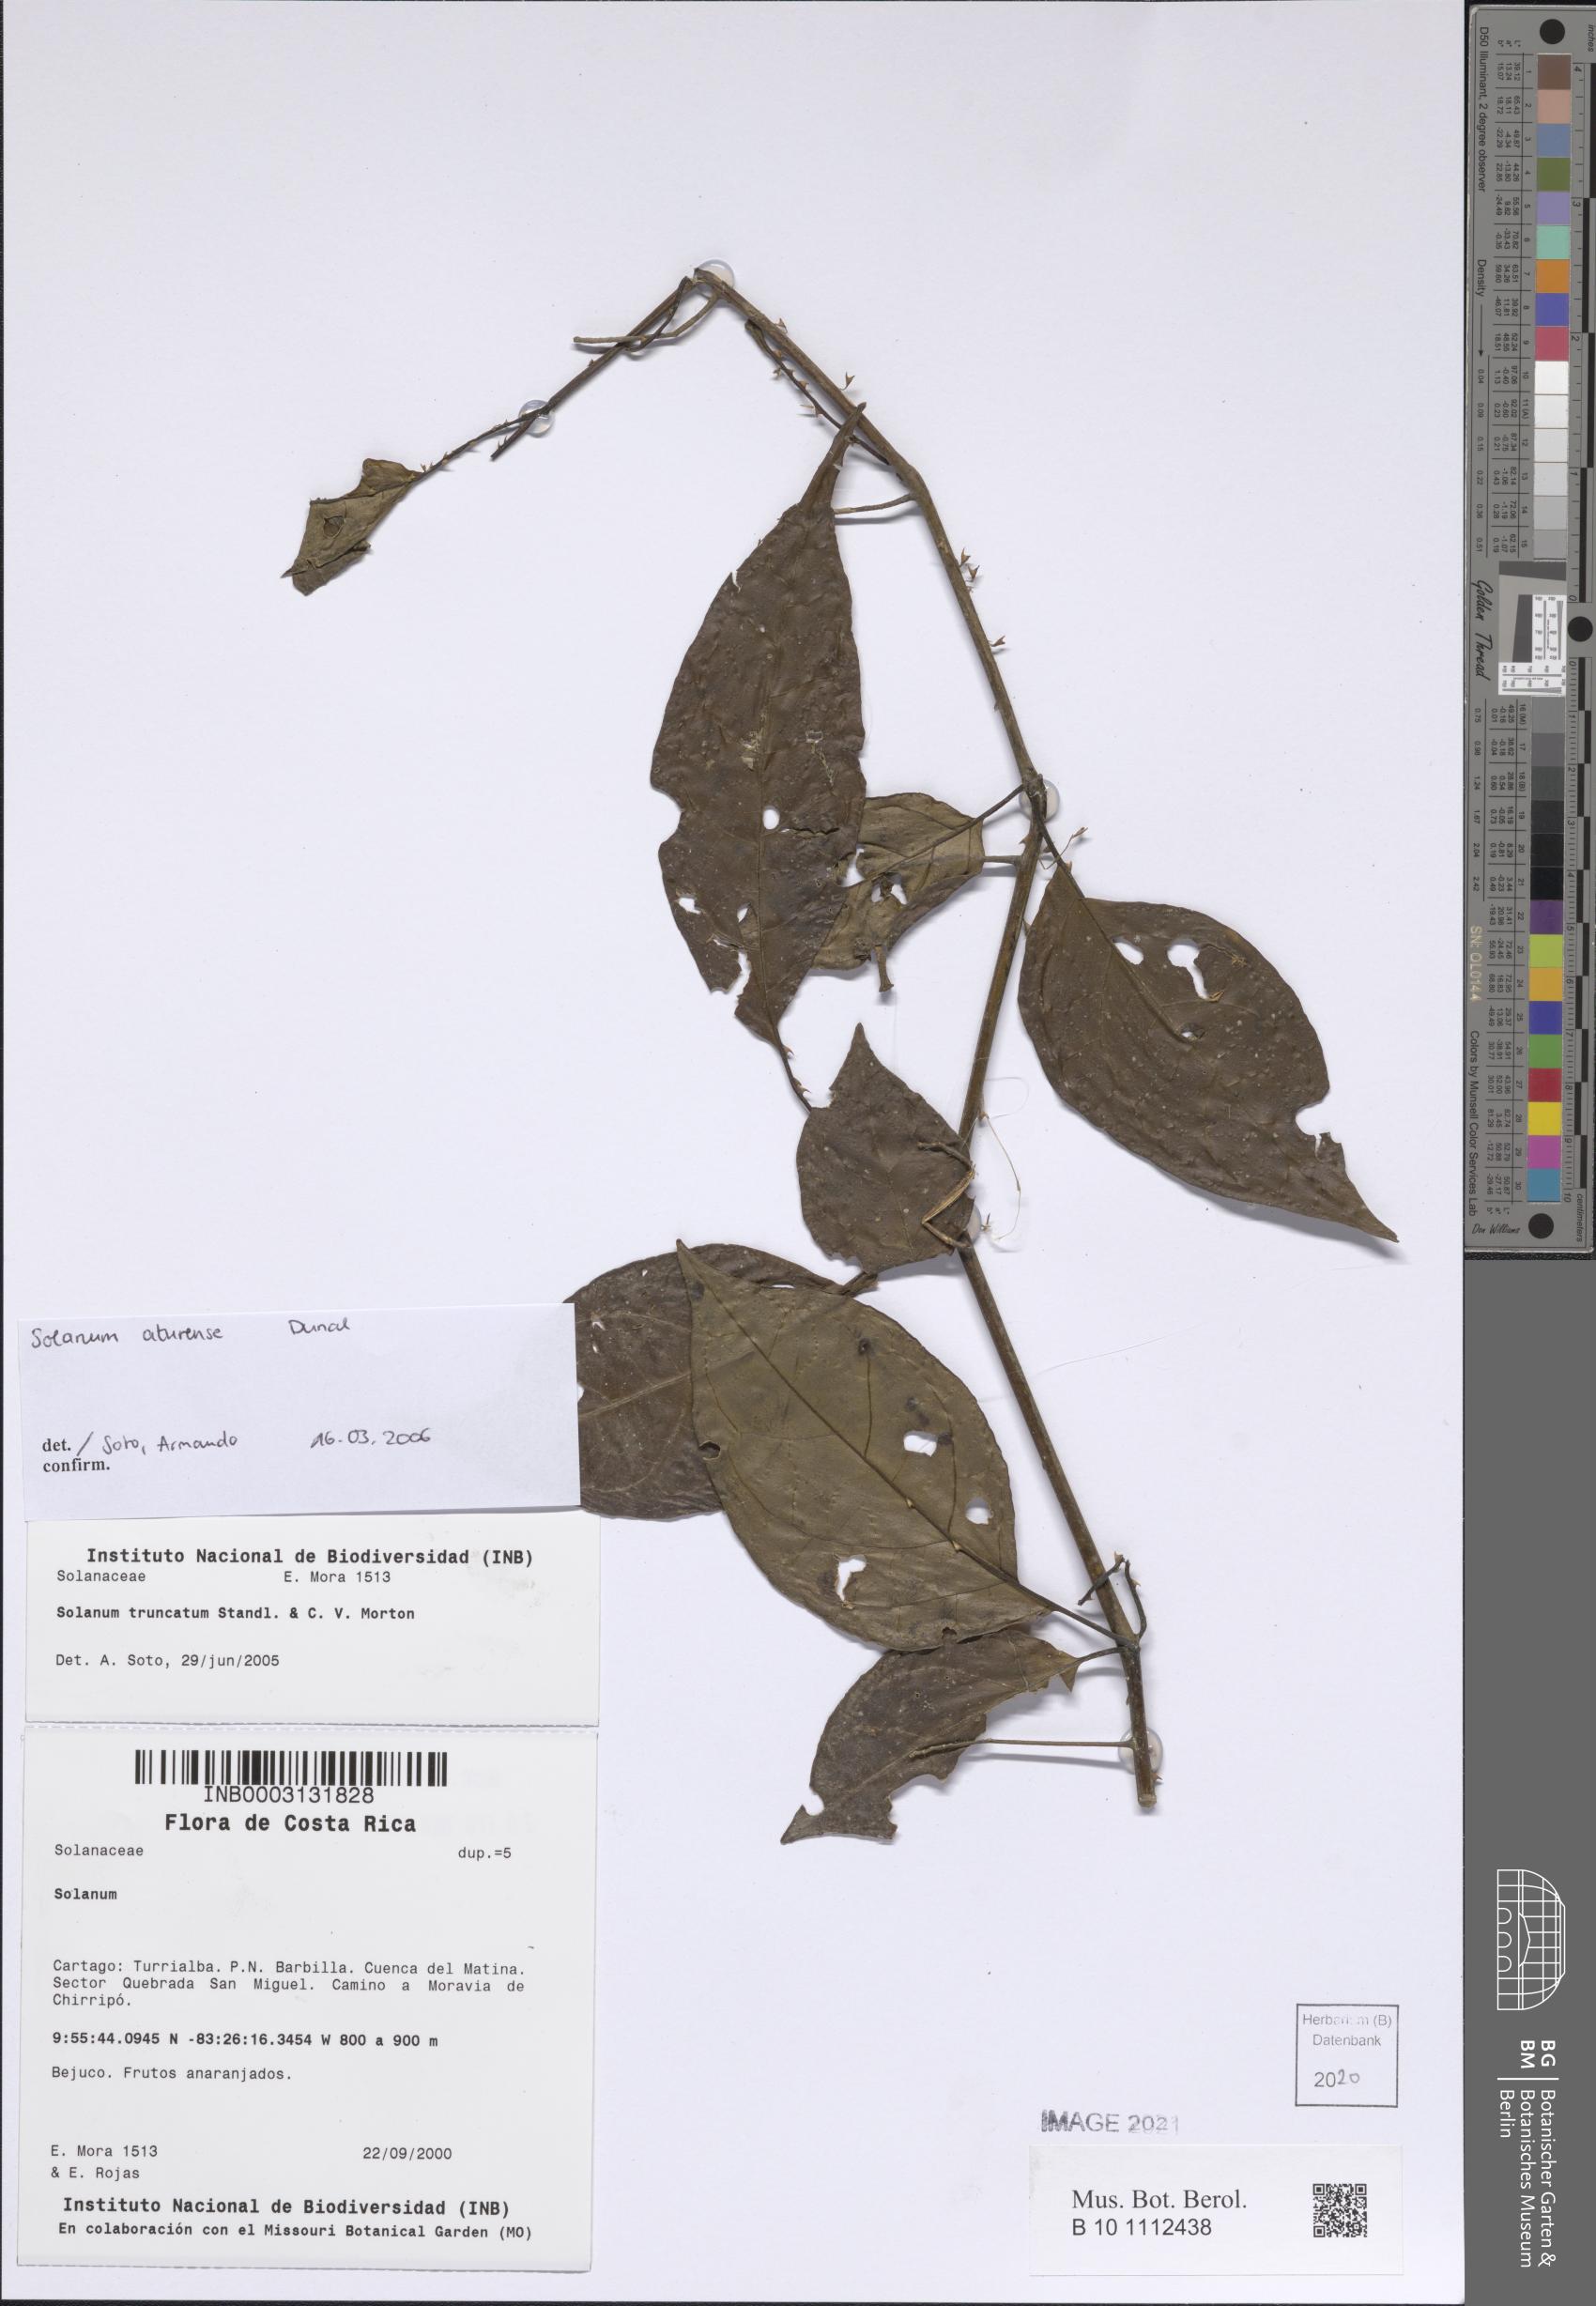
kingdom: Plantae
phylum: Tracheophyta
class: Magnoliopsida
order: Solanales
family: Solanaceae
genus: Solanum
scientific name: Solanum aturense
